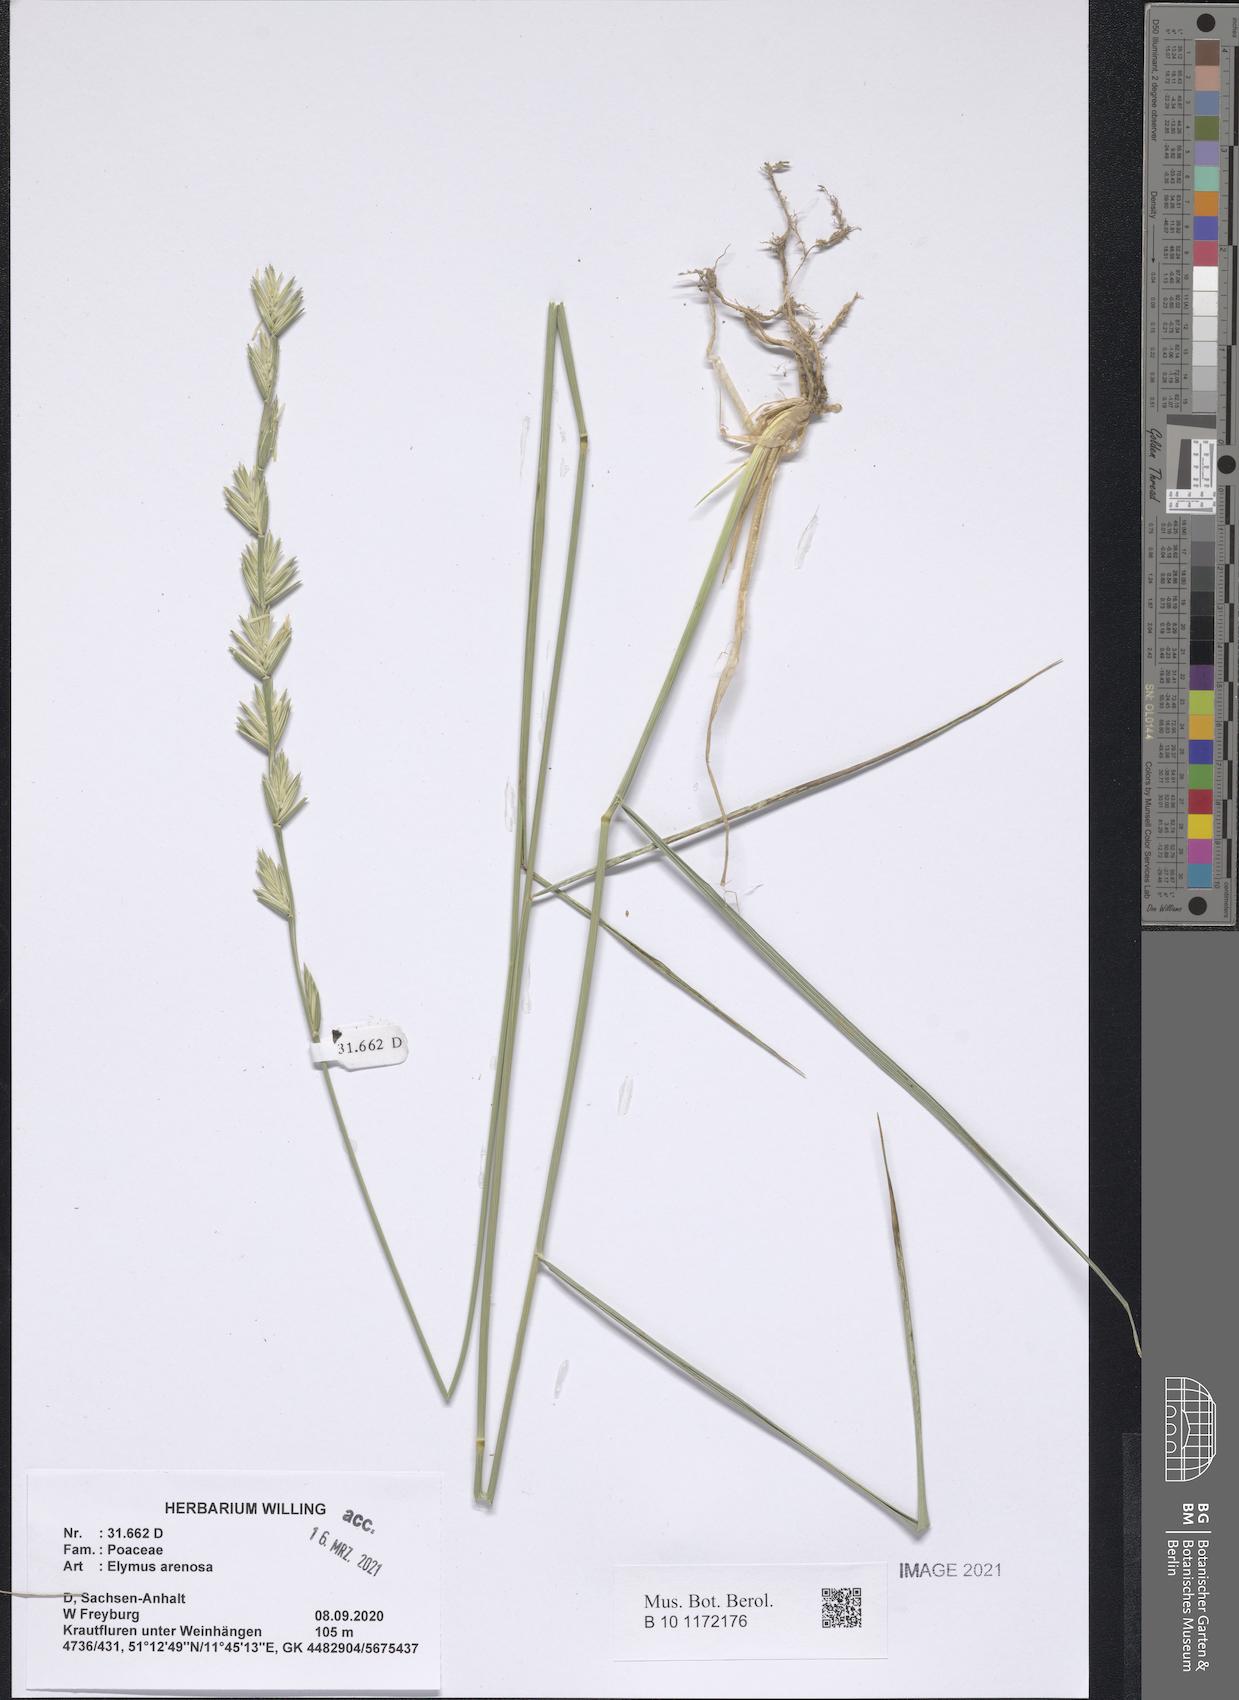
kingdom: Plantae
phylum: Tracheophyta
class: Liliopsida
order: Poales
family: Poaceae
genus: Elymus
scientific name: Elymus repens
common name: Quackgrass
